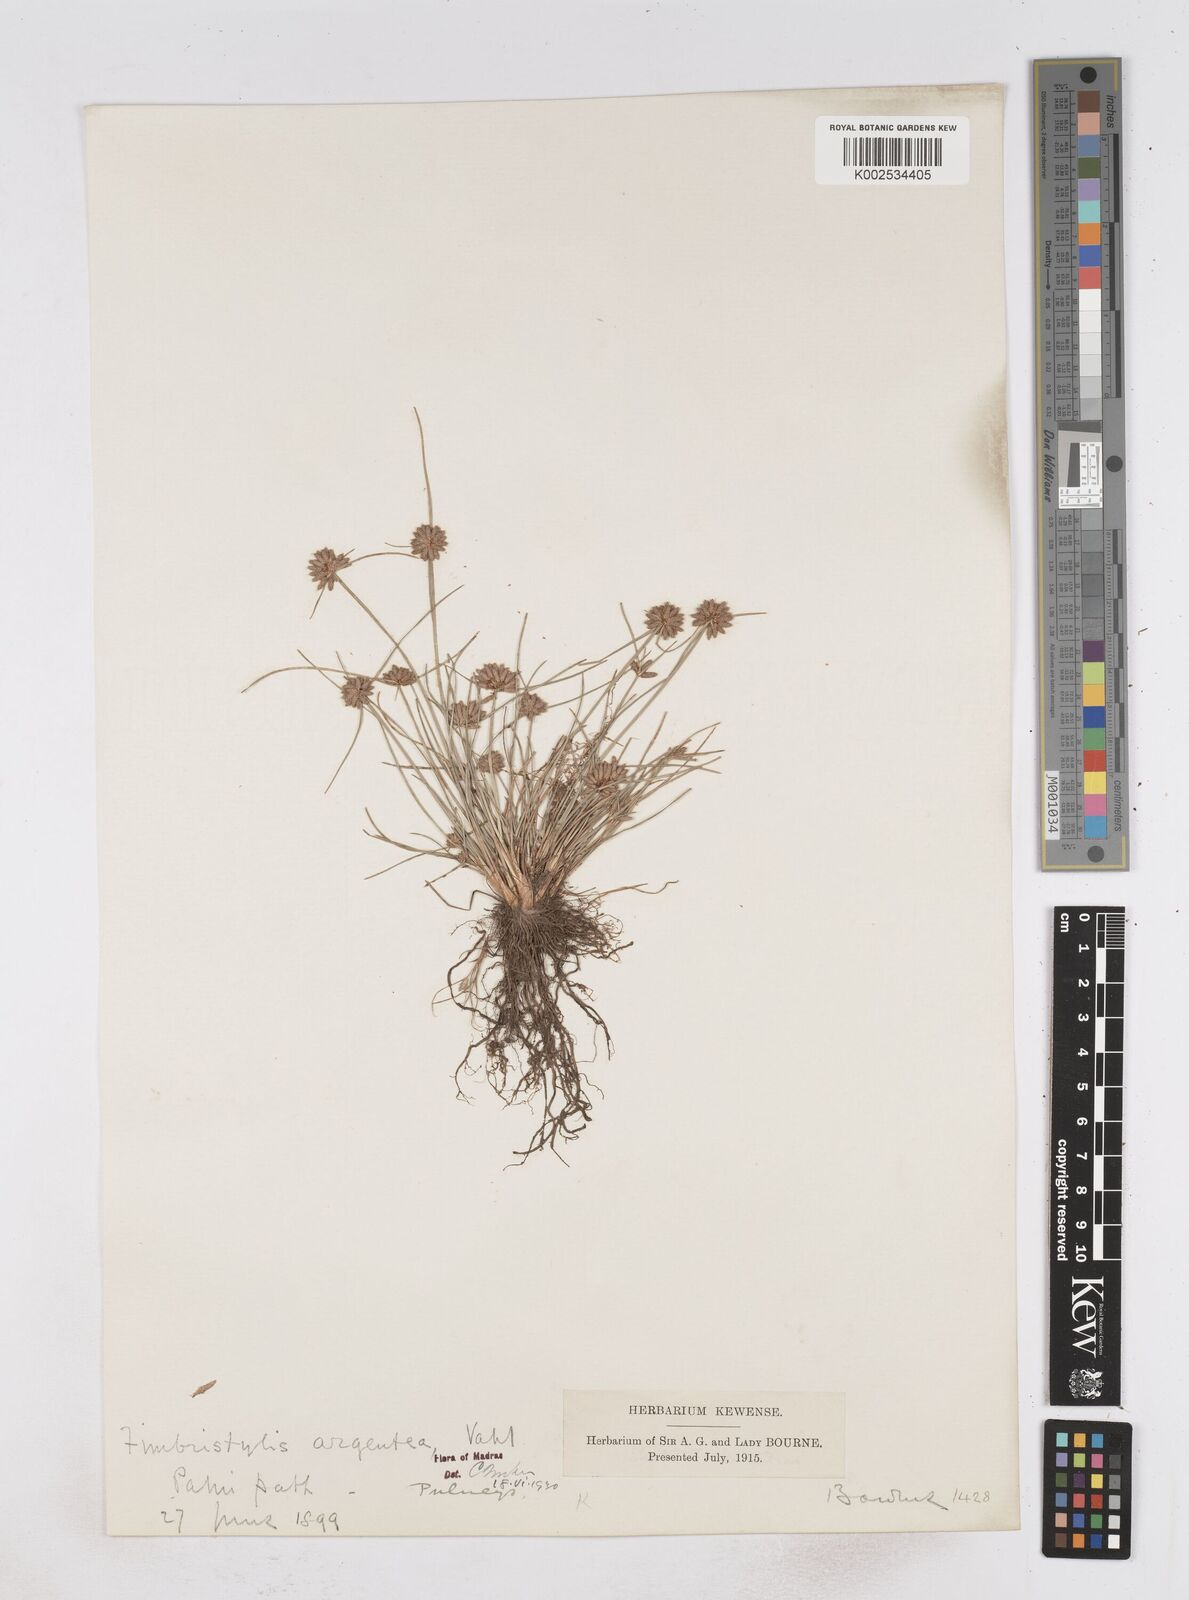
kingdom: Plantae
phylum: Tracheophyta
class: Liliopsida
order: Poales
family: Cyperaceae
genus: Fimbristylis
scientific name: Fimbristylis argentea
